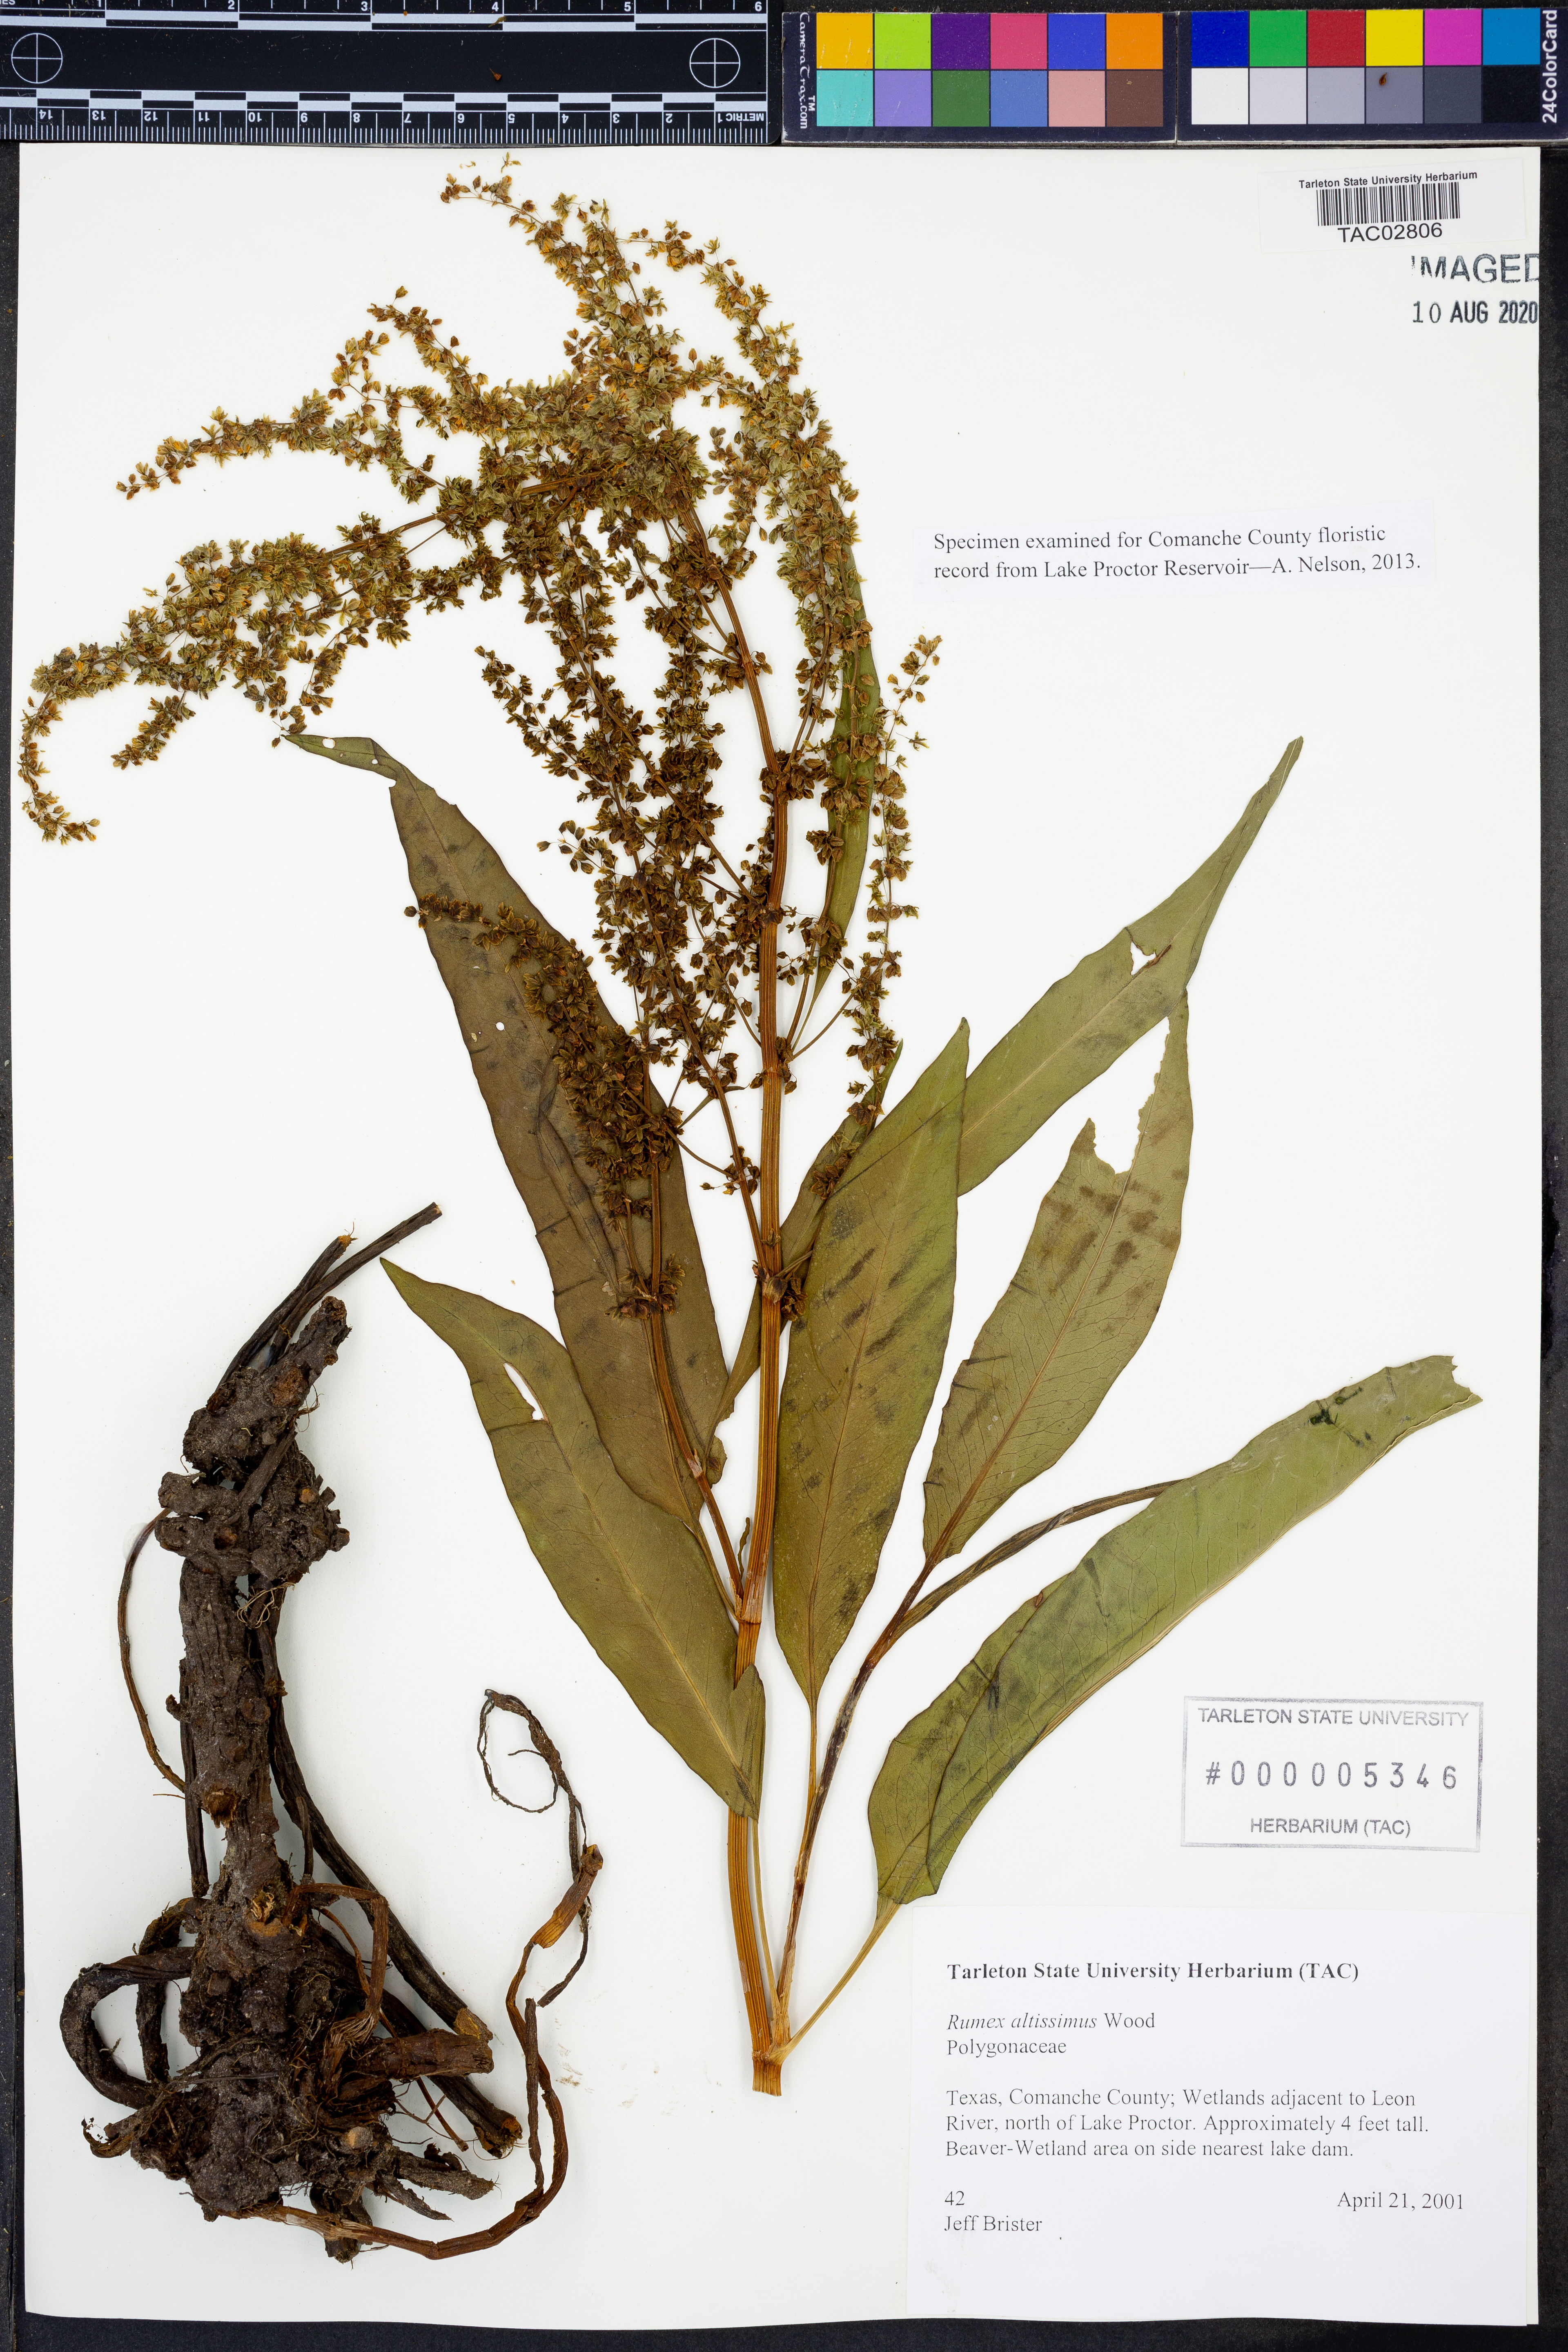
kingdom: Plantae
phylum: Tracheophyta
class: Magnoliopsida
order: Caryophyllales
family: Polygonaceae
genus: Rumex
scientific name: Rumex altissimus
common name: Smooth dock
